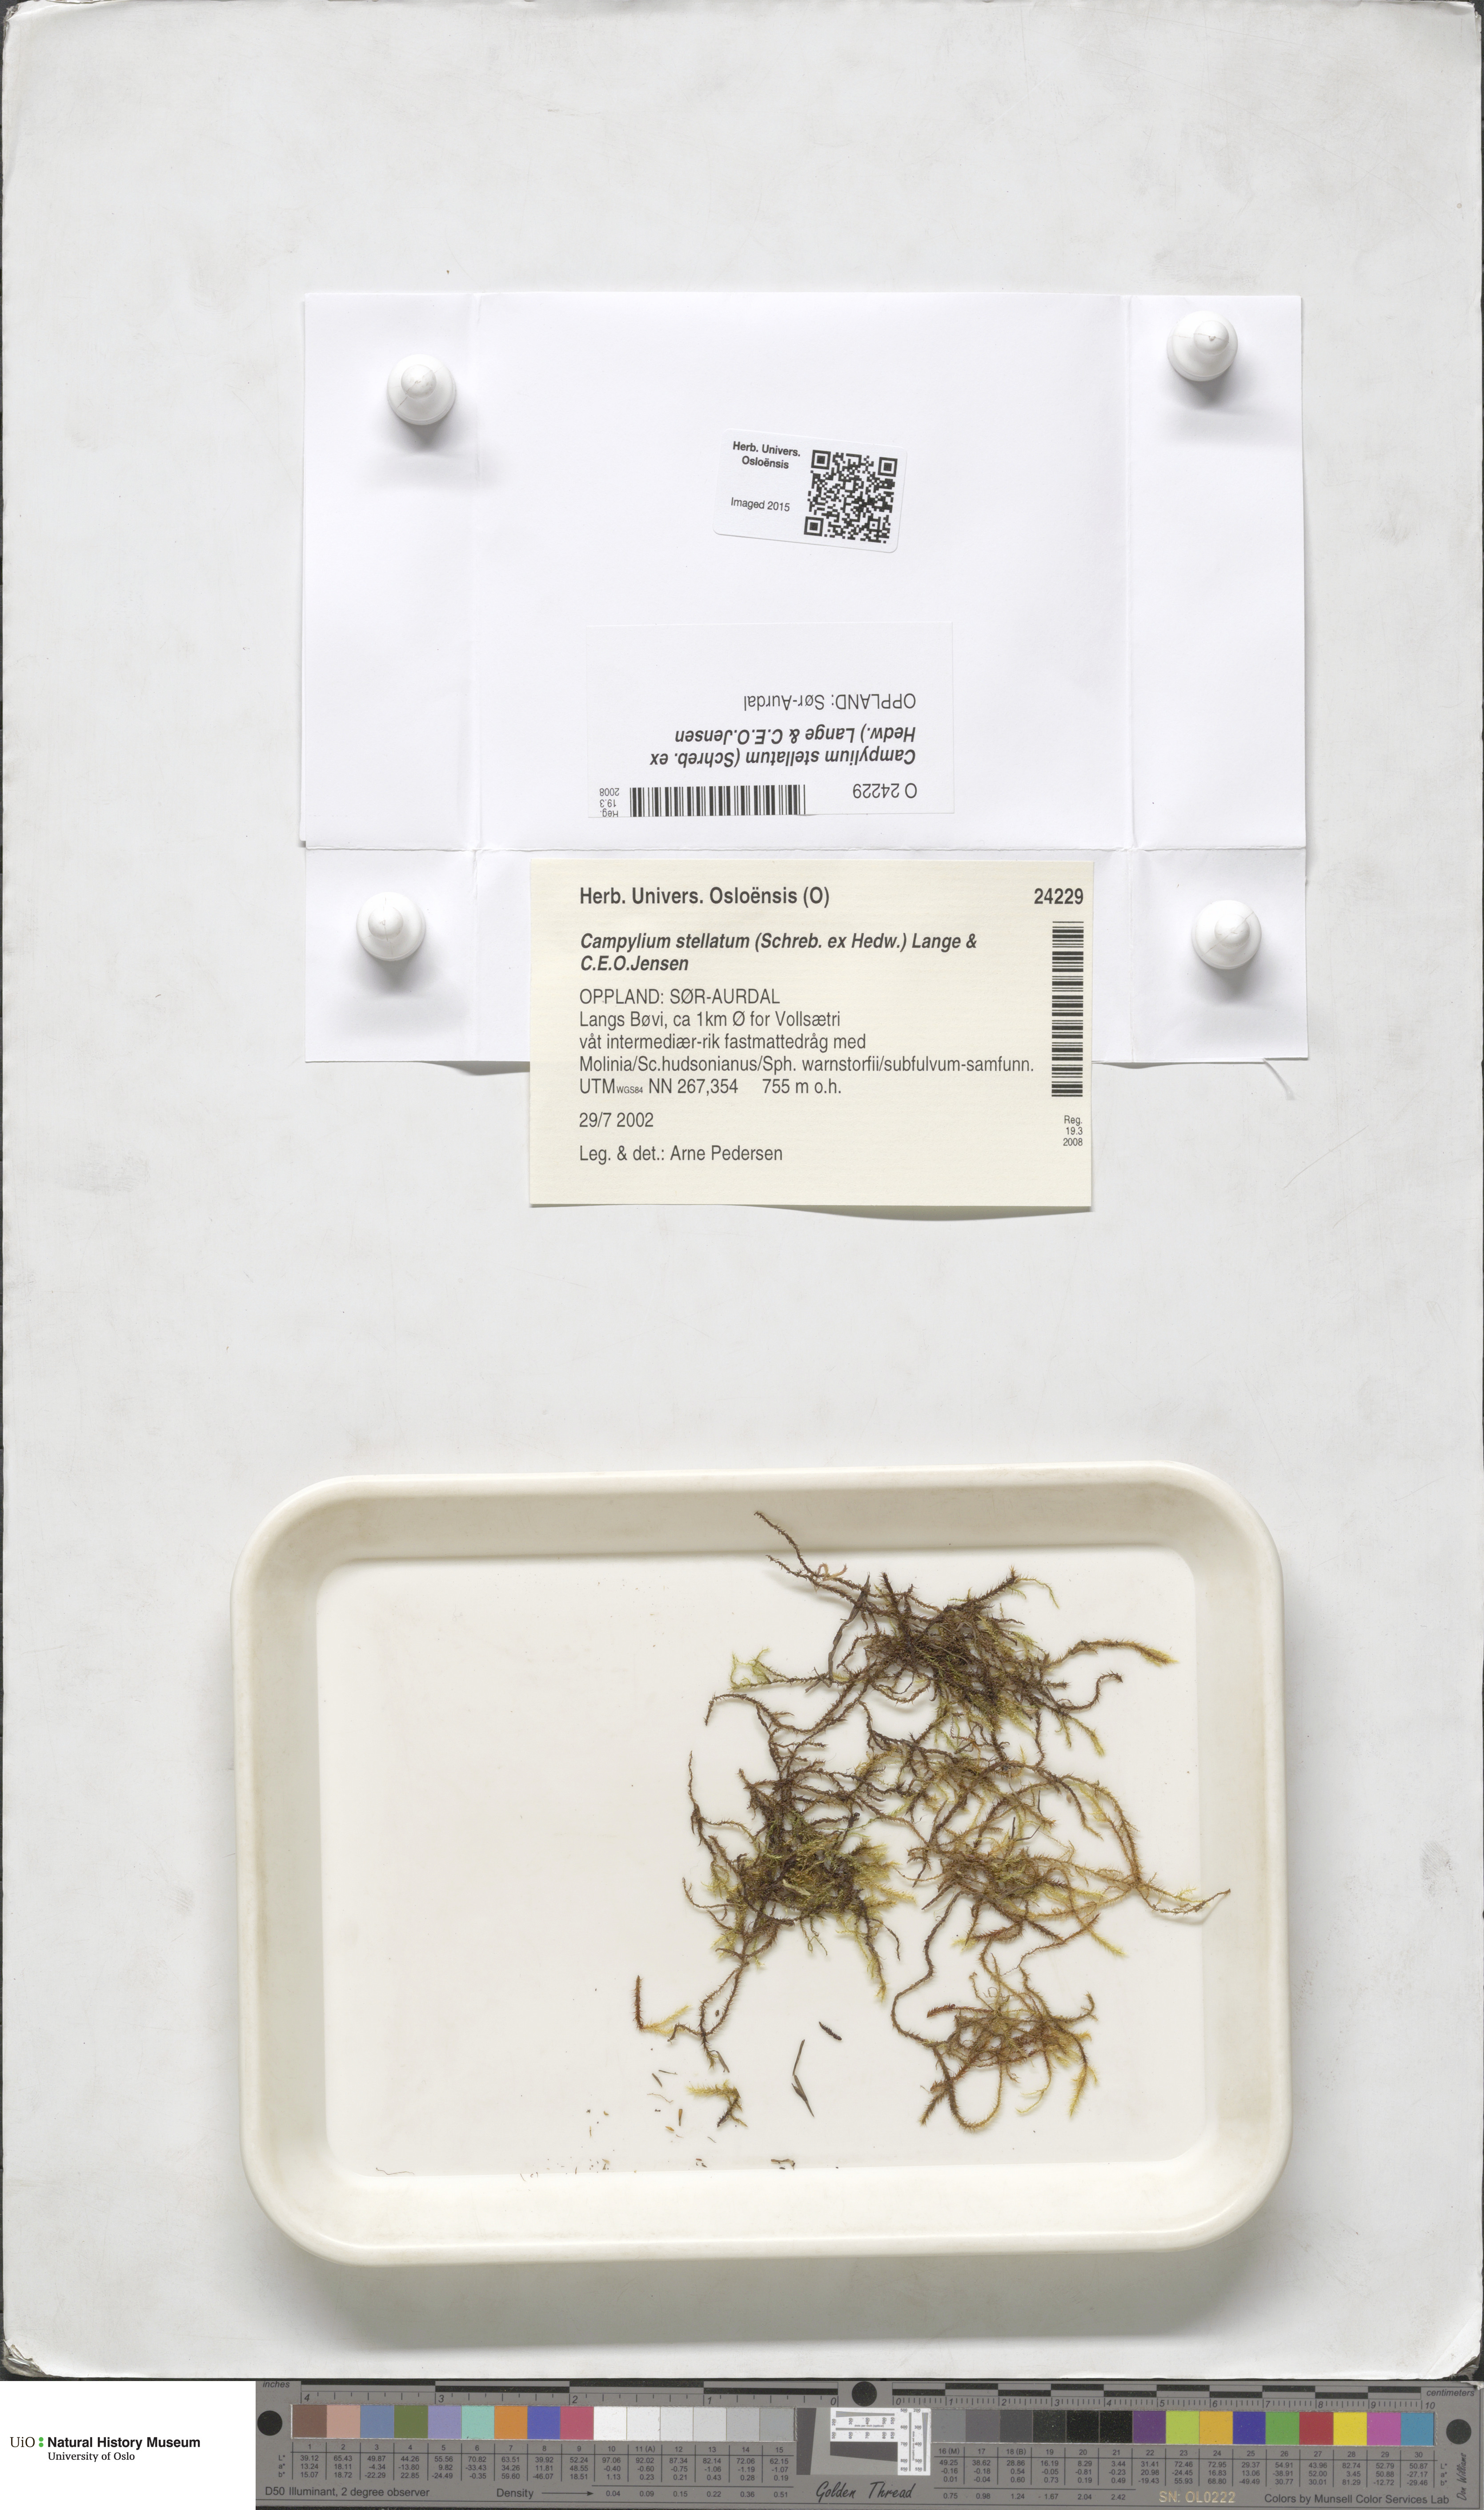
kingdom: Plantae
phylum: Bryophyta
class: Bryopsida
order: Hypnales
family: Amblystegiaceae
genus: Campylium
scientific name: Campylium stellatum
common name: Yellow starry fen moss
